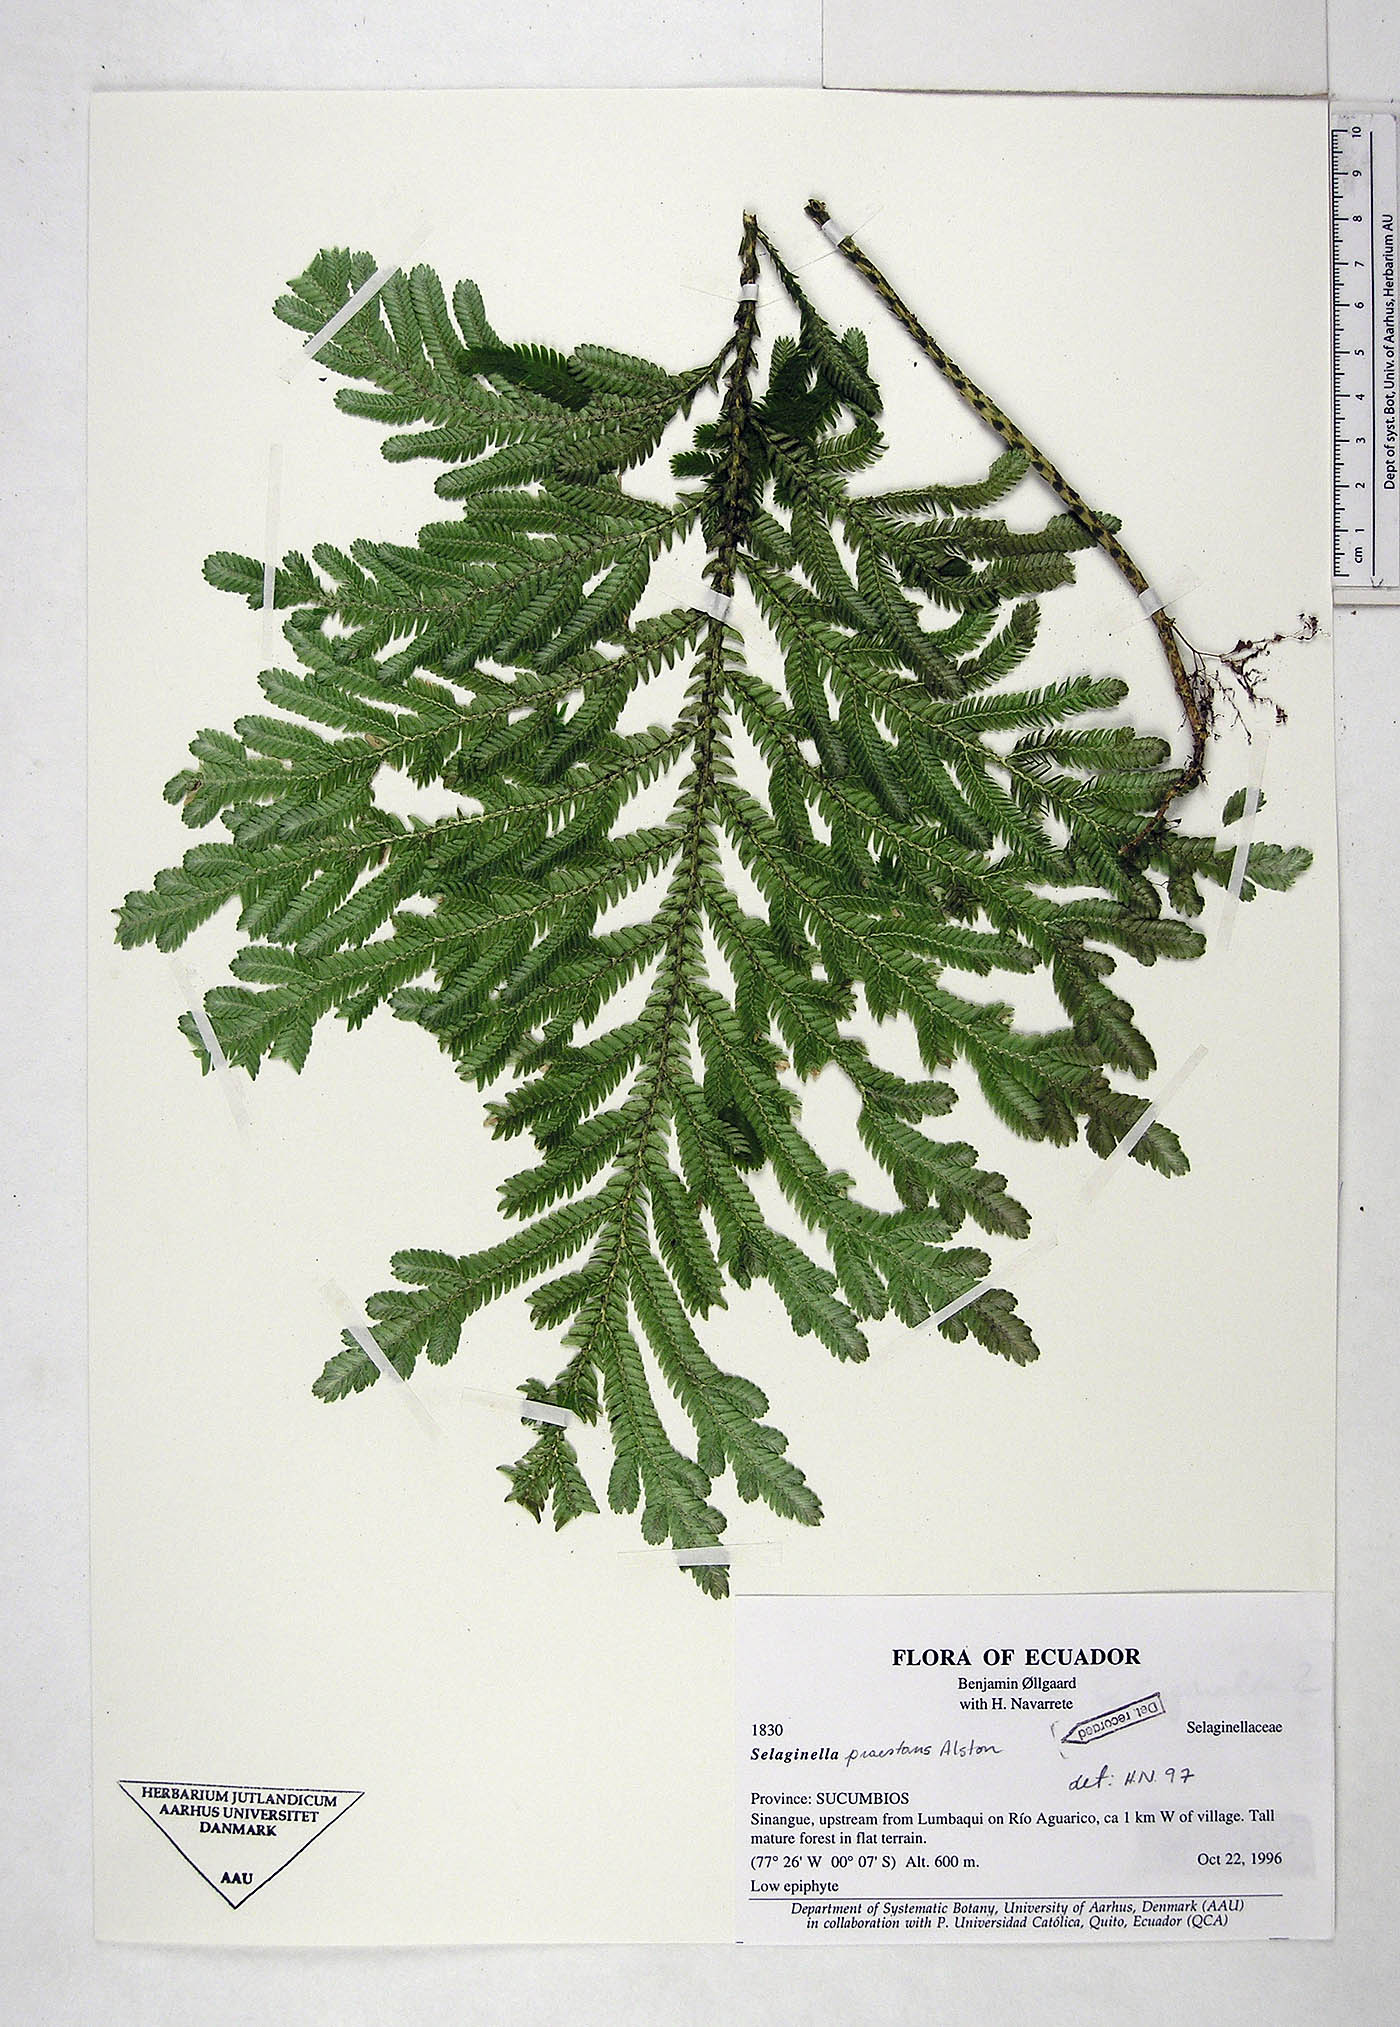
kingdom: Plantae
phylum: Tracheophyta
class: Lycopodiopsida
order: Selaginellales
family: Selaginellaceae
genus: Selaginella
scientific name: Selaginella praestans
